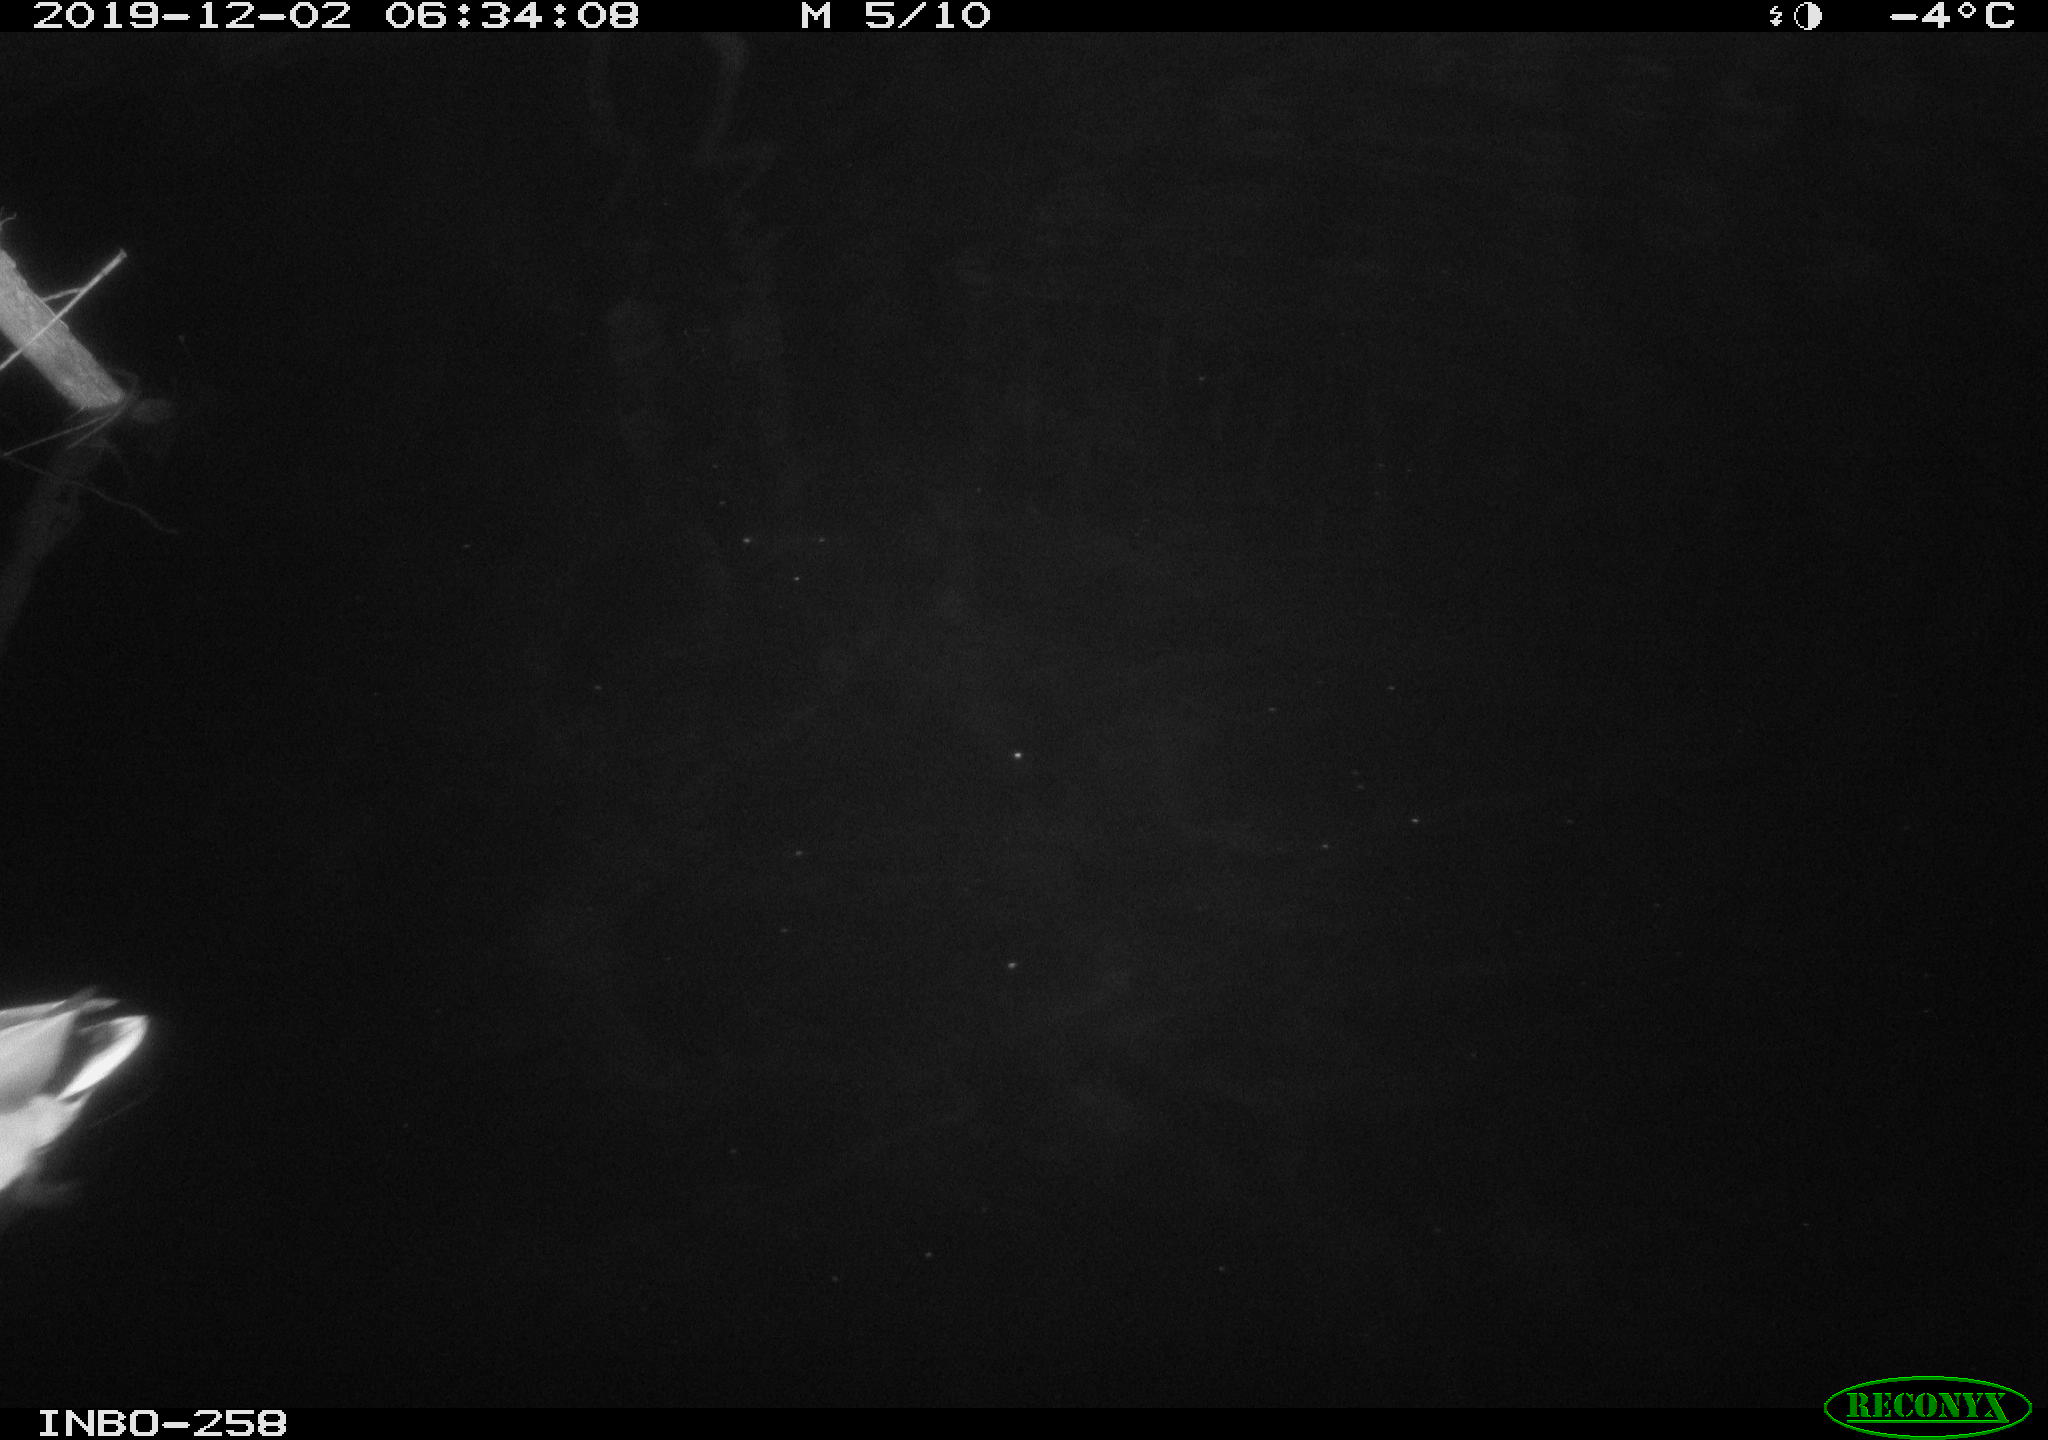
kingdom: Animalia
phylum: Chordata
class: Aves
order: Anseriformes
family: Anatidae
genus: Anas
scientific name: Anas platyrhynchos
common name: Mallard
